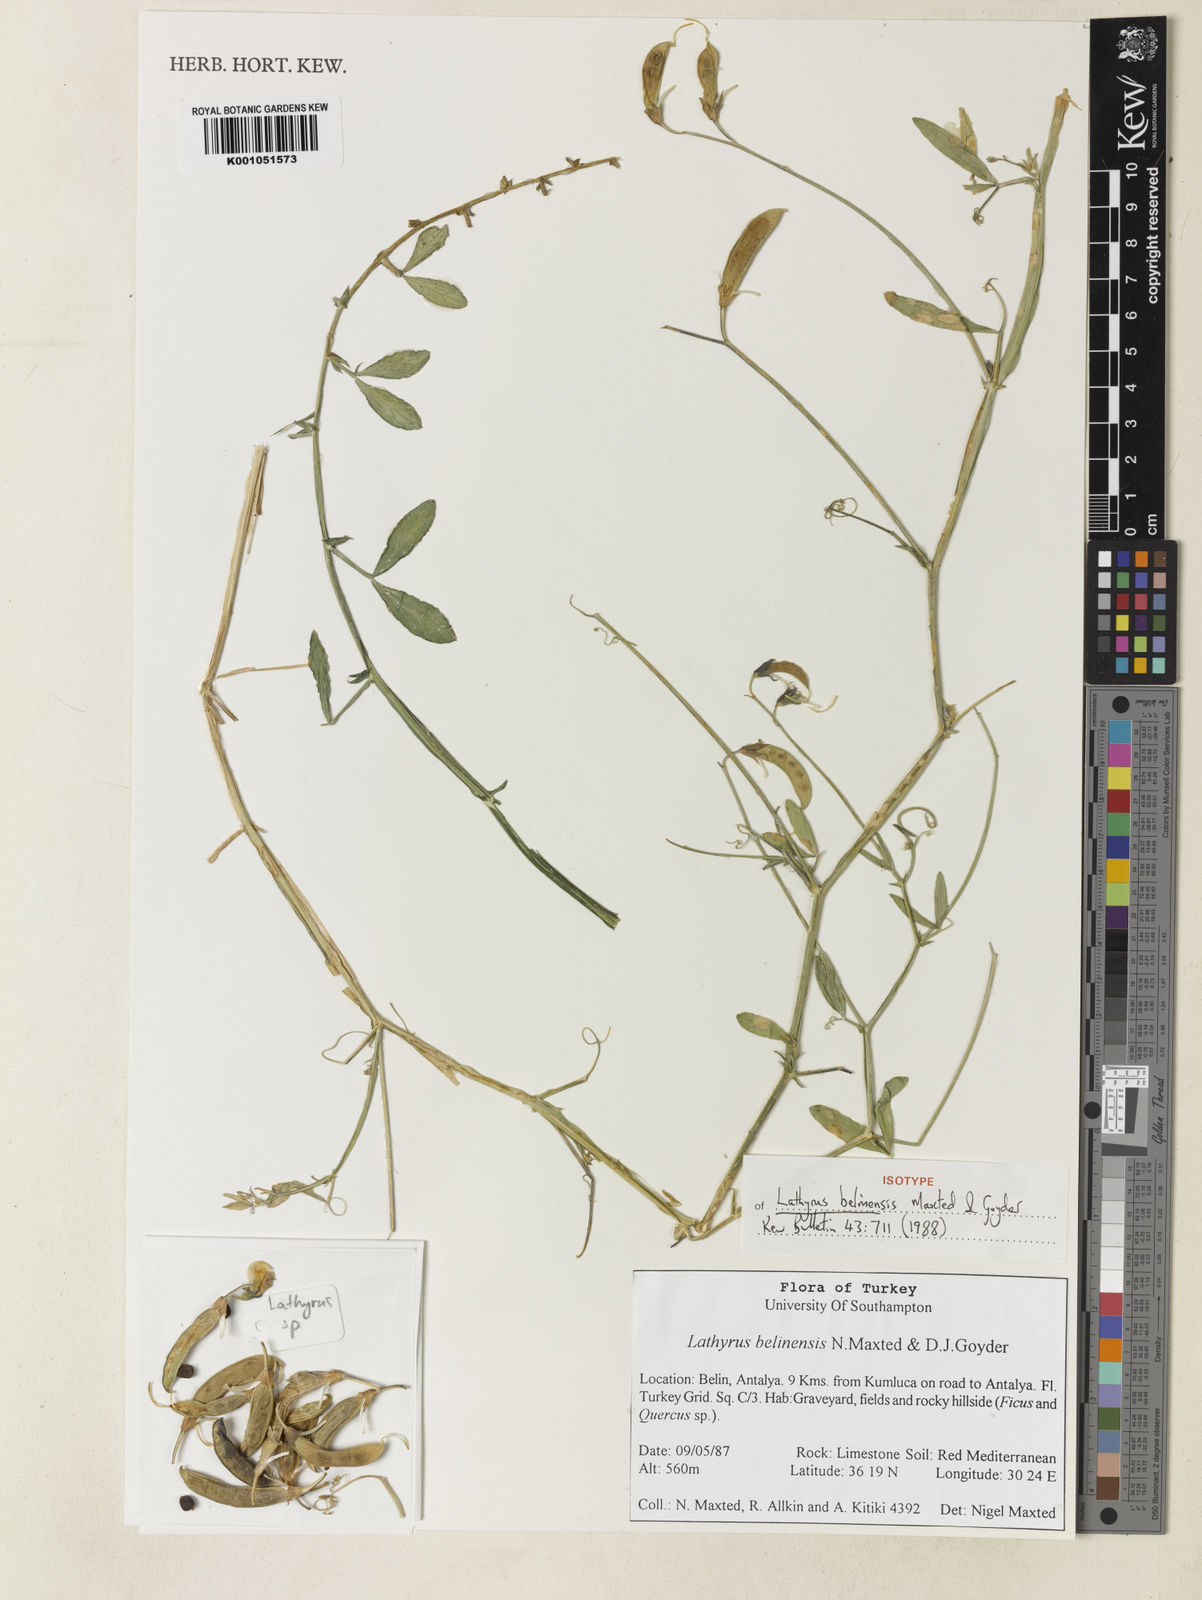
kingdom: Plantae
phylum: Tracheophyta
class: Magnoliopsida
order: Fabales
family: Fabaceae
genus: Lathyrus
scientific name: Lathyrus belinensis
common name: Belin sweet pea
